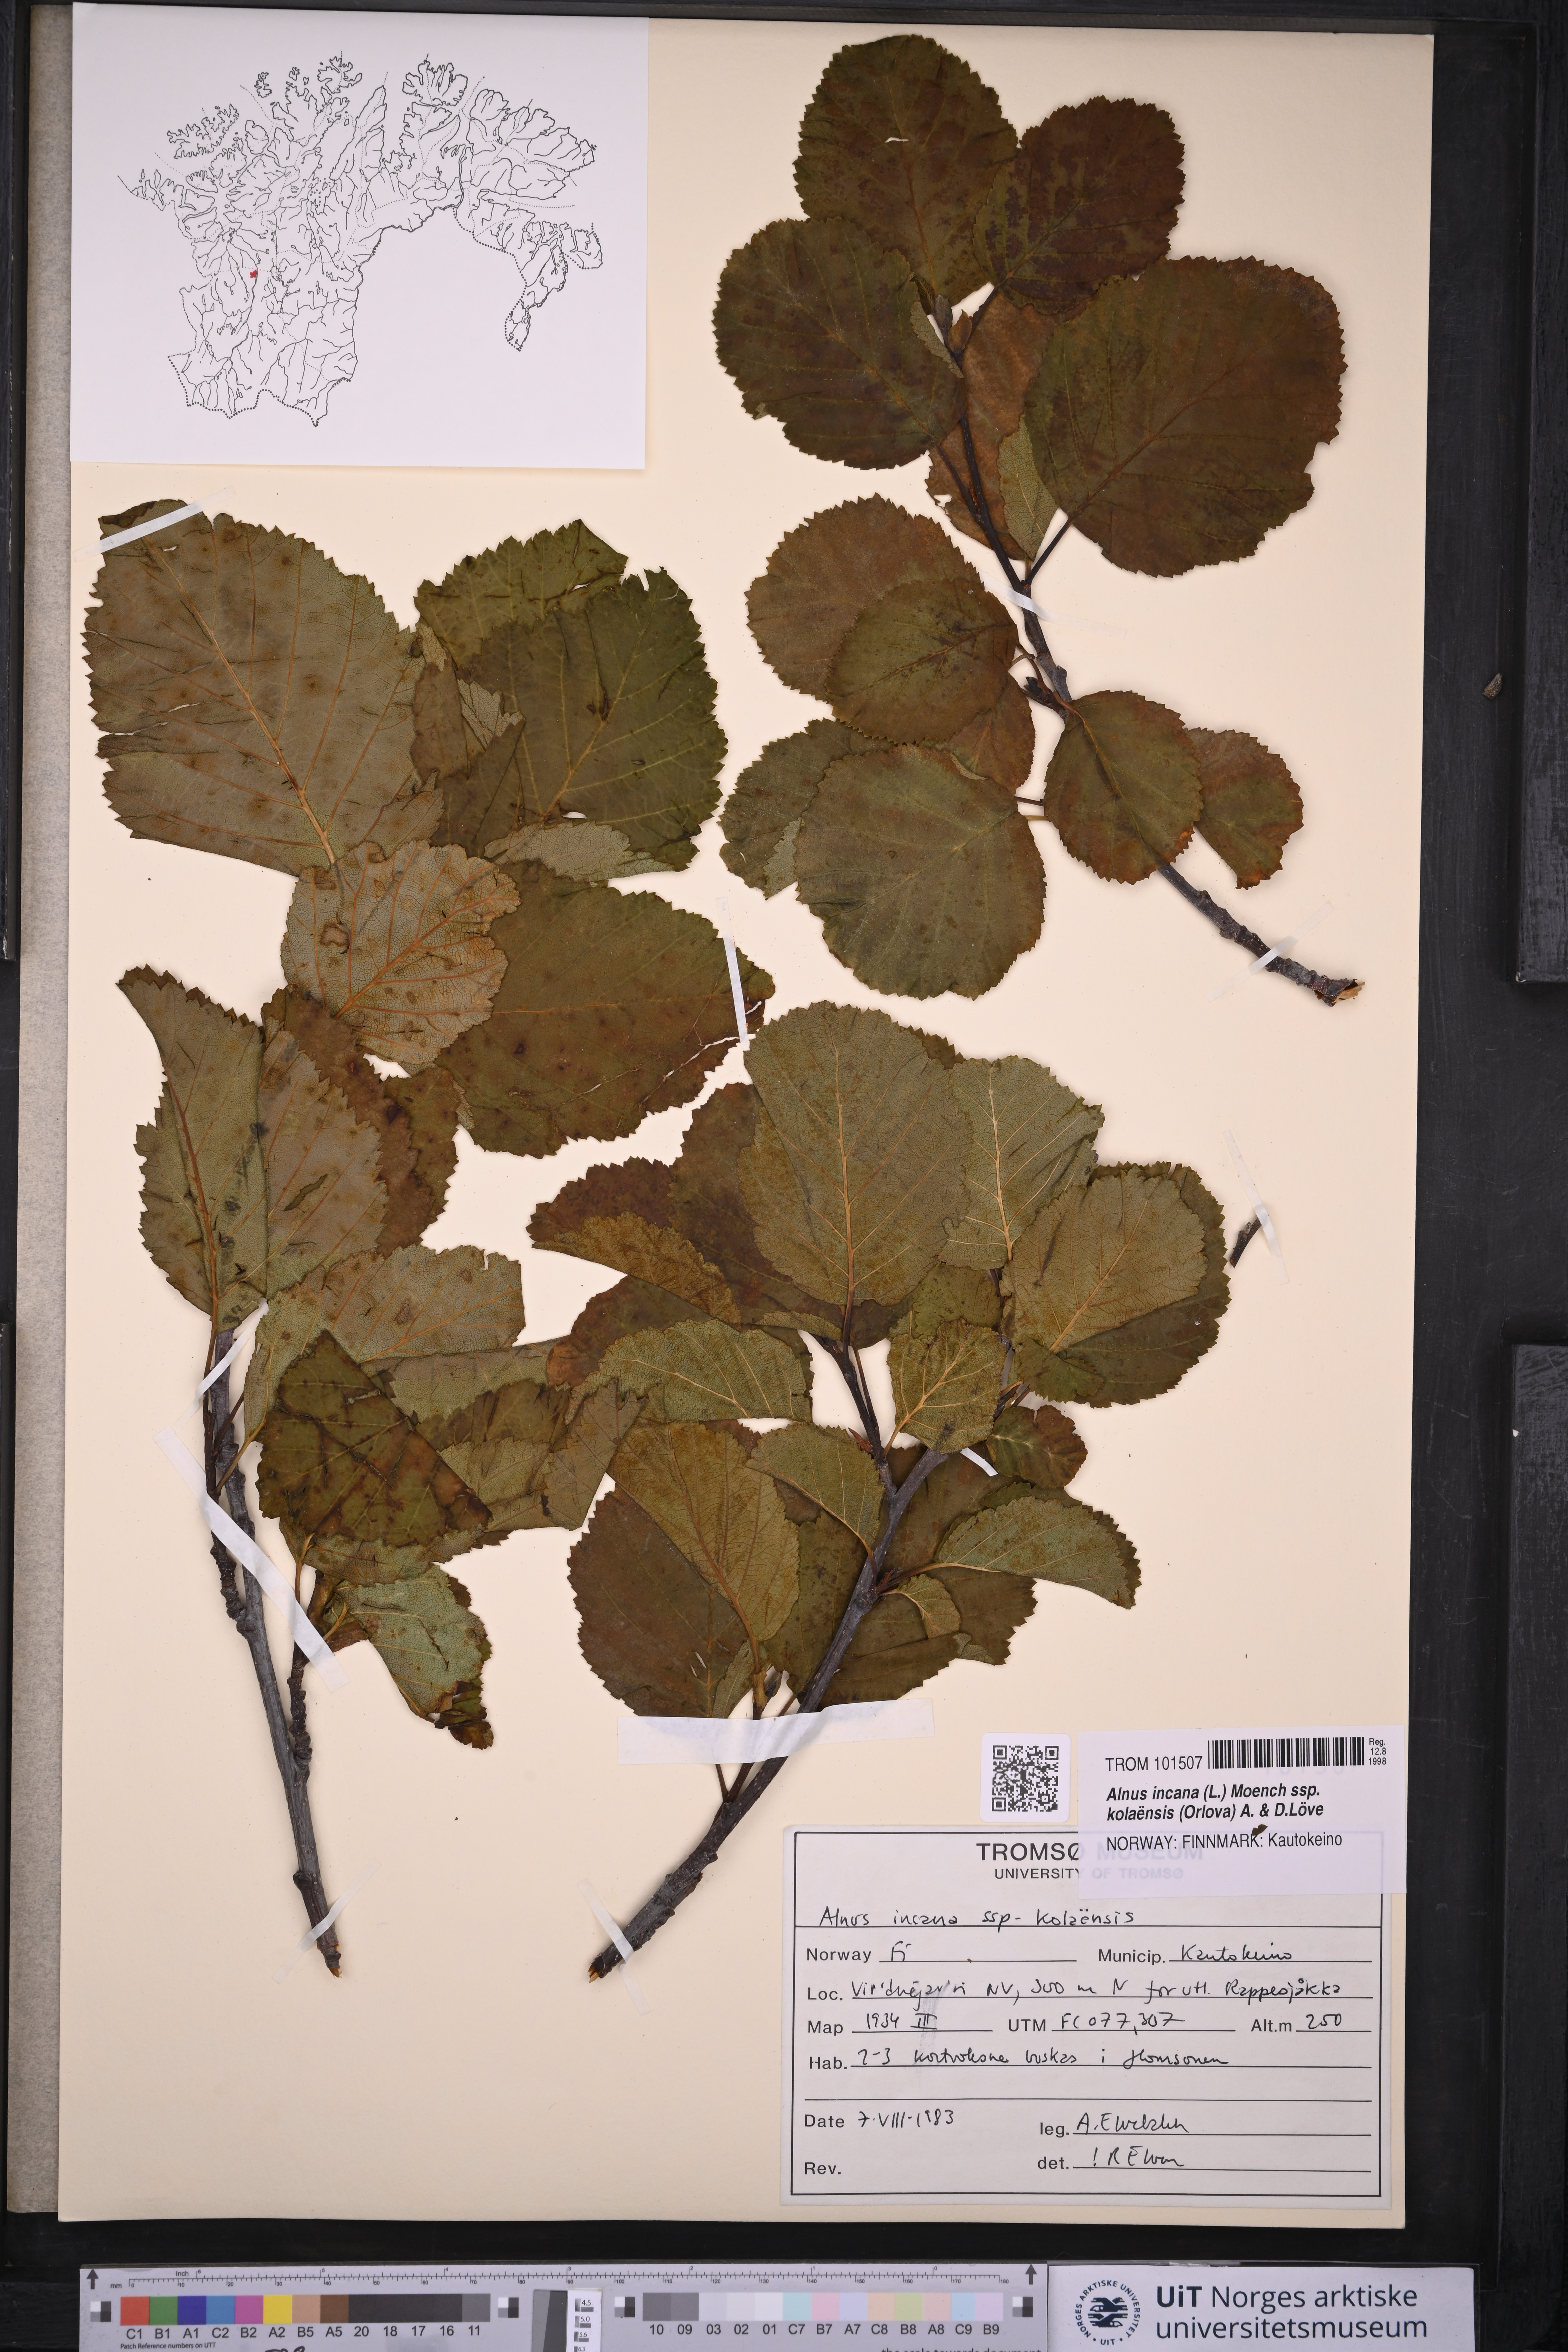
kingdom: Plantae
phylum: Tracheophyta
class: Magnoliopsida
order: Fagales
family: Betulaceae
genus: Alnus
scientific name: Alnus incana
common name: Grey alder
